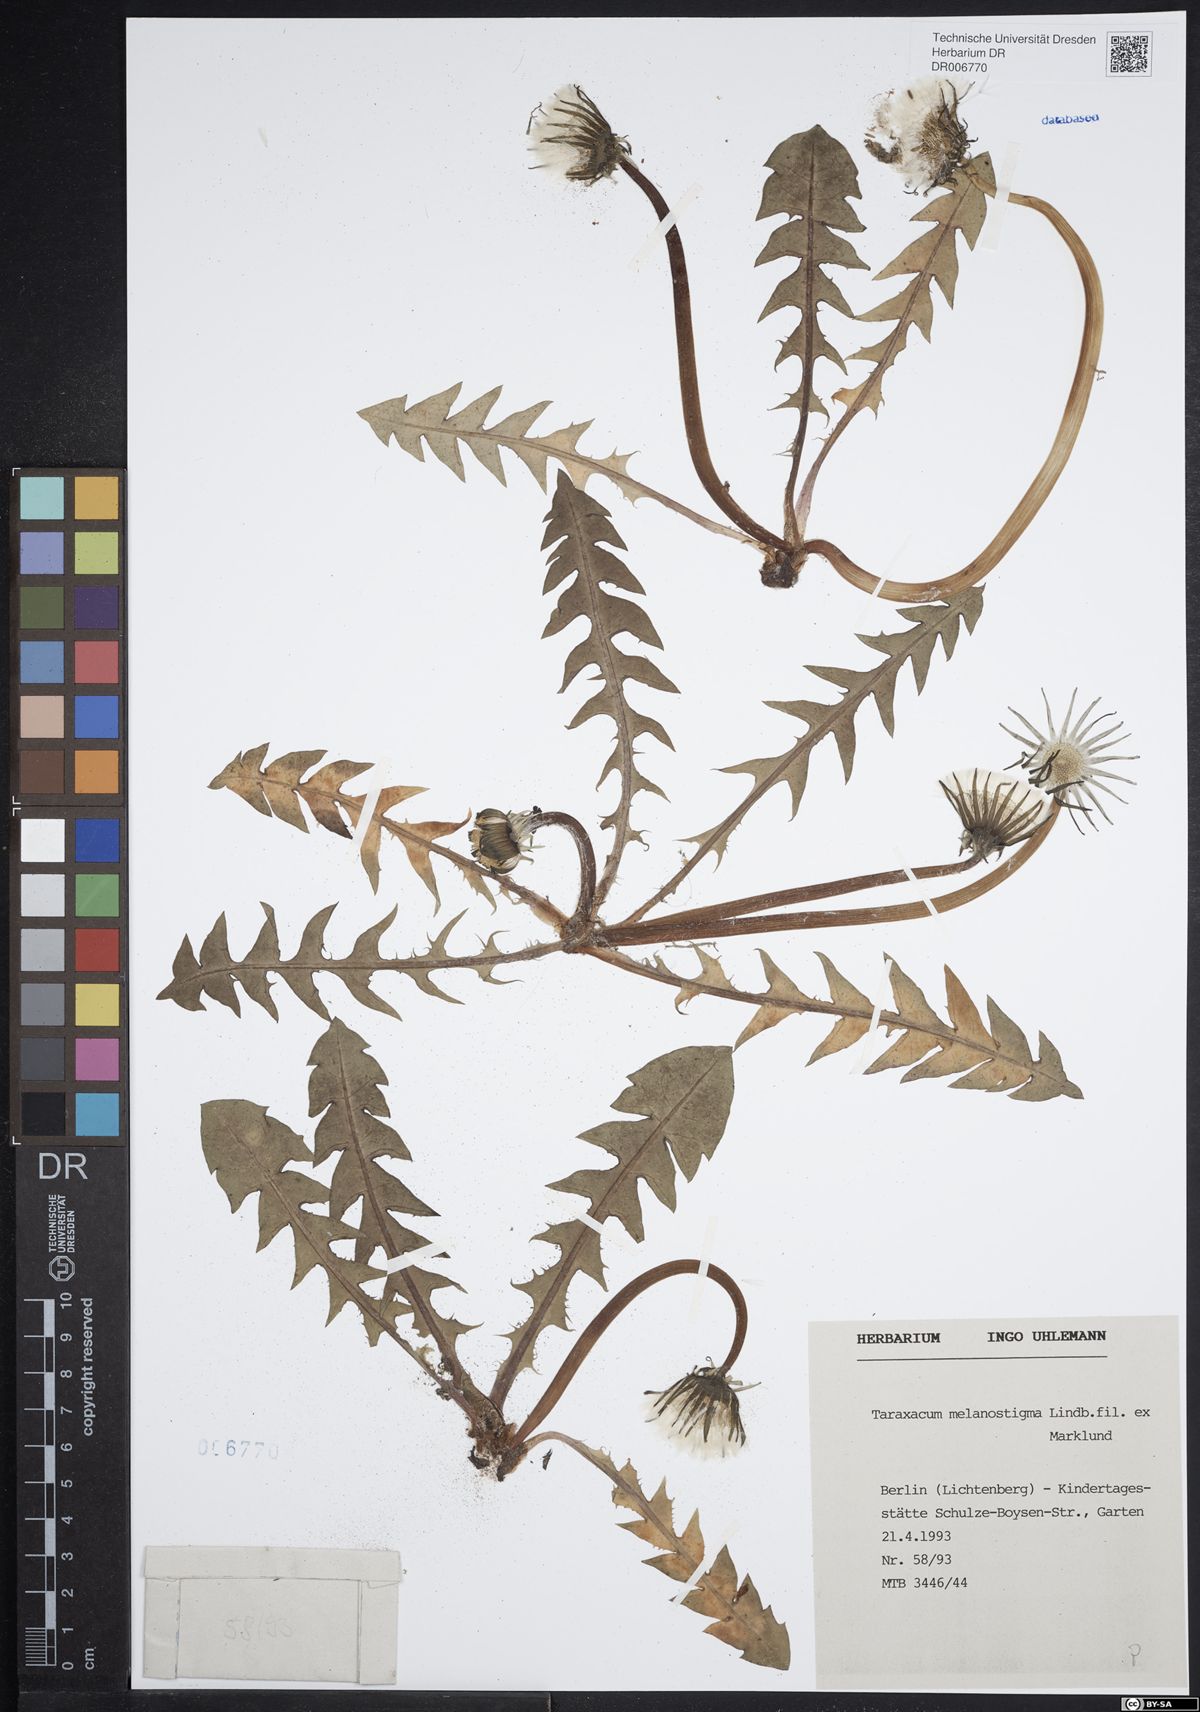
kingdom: Plantae
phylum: Tracheophyta
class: Magnoliopsida
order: Asterales
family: Asteraceae
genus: Taraxacum
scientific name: Taraxacum melanostigma
